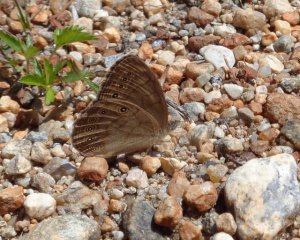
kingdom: Animalia
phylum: Arthropoda
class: Insecta
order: Lepidoptera
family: Nymphalidae
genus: Lethe
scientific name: Lethe eurydice
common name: Appalachian Eyed Brown
